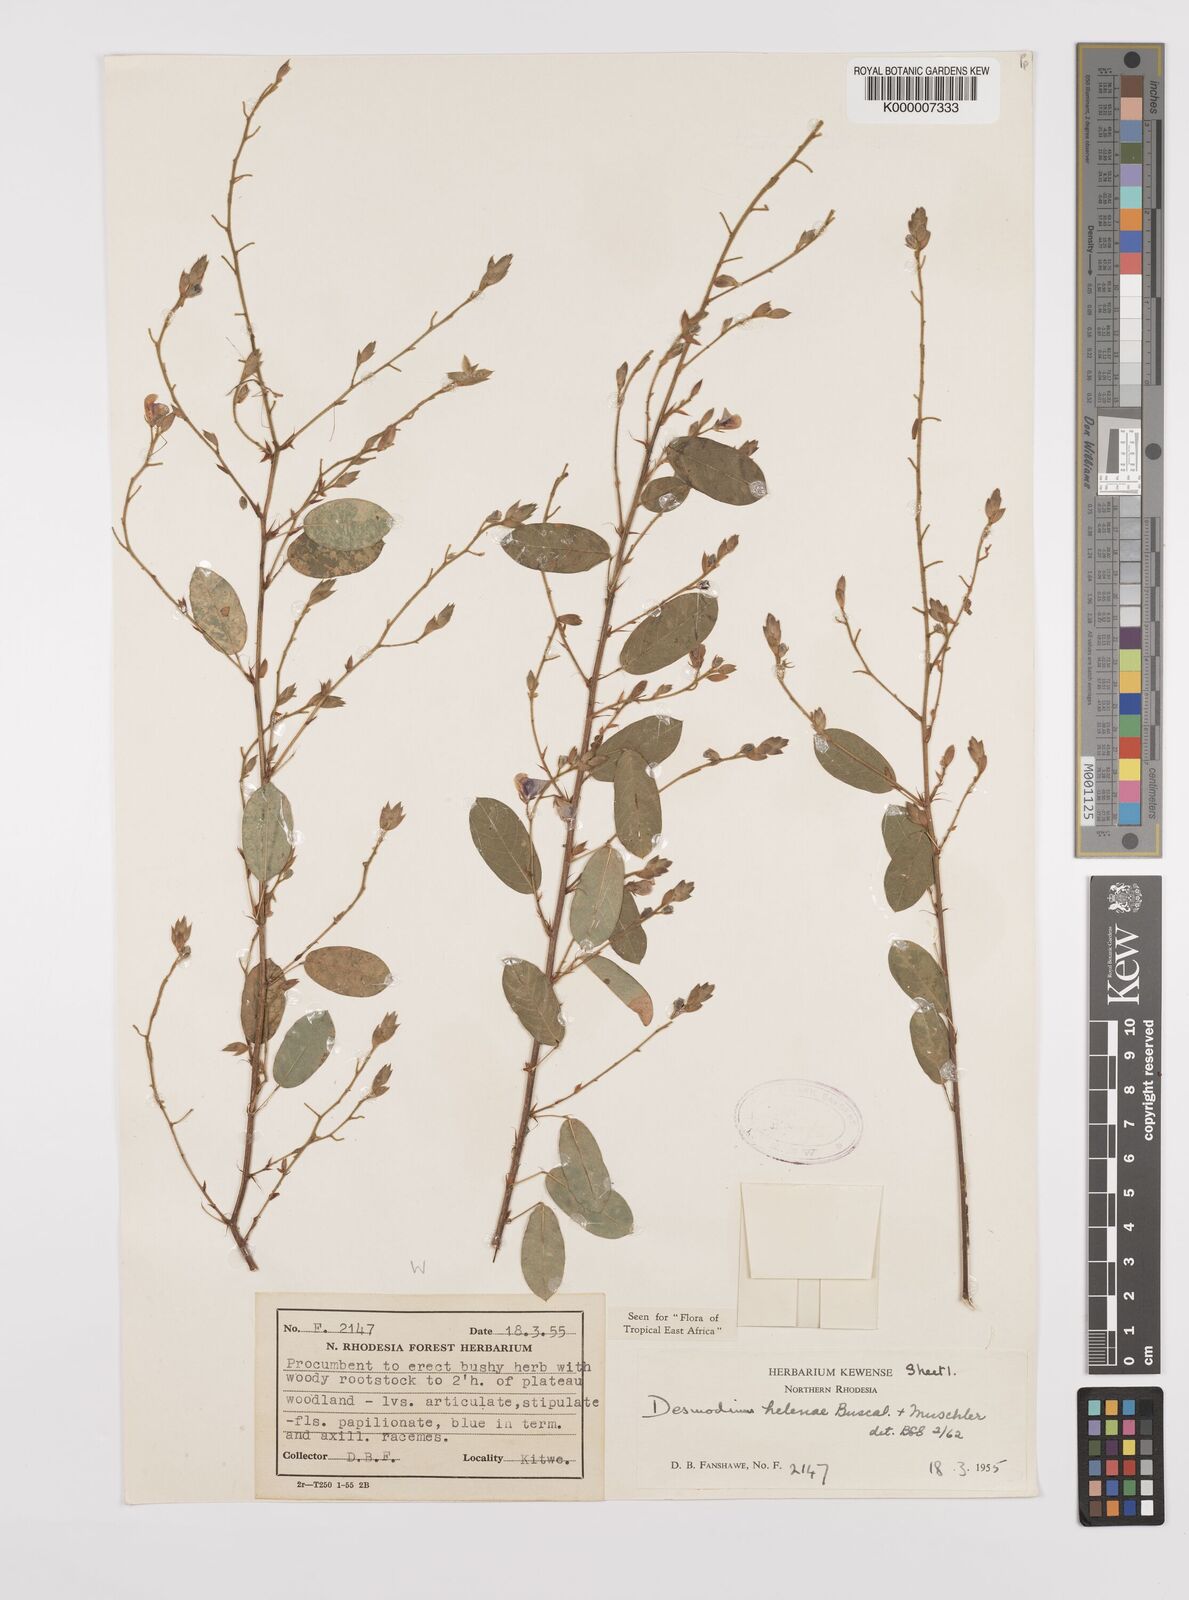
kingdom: Plantae
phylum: Tracheophyta
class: Magnoliopsida
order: Fabales
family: Fabaceae
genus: Grona
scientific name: Grona helenae
